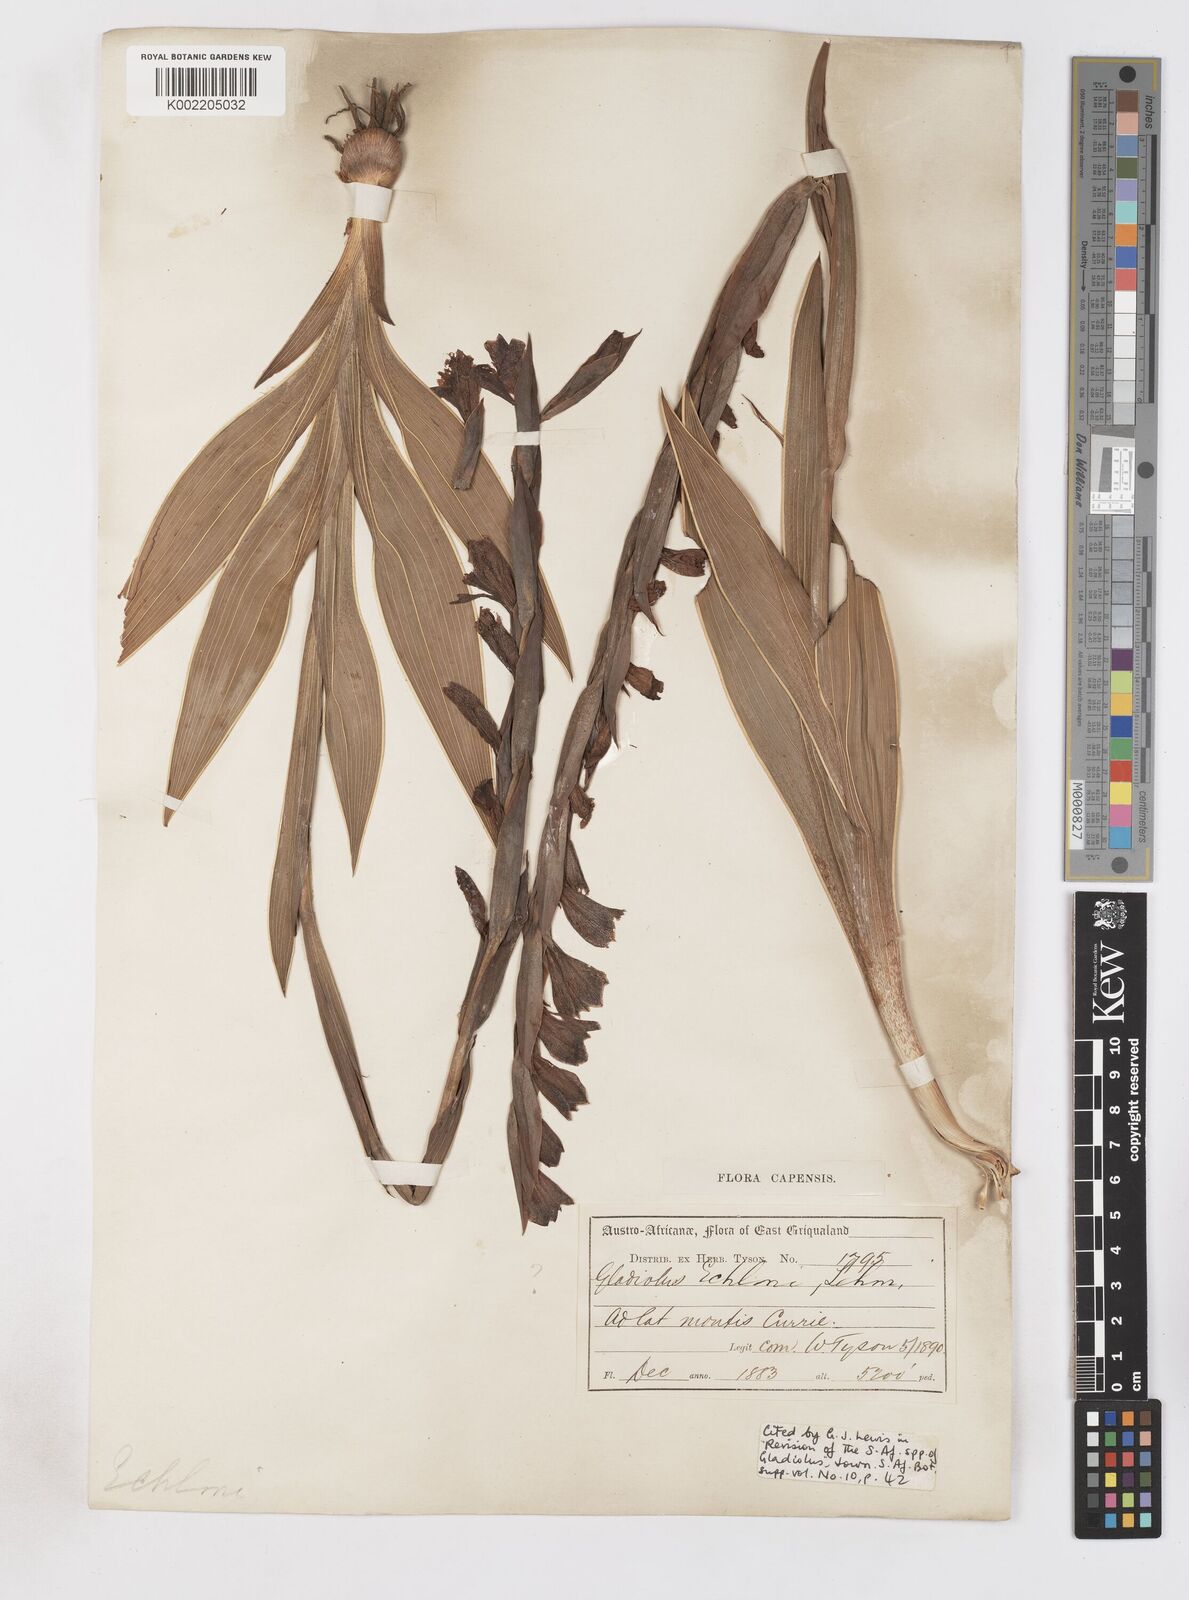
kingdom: Plantae
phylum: Tracheophyta
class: Liliopsida
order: Asparagales
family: Iridaceae
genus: Gladiolus
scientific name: Gladiolus ecklonii
